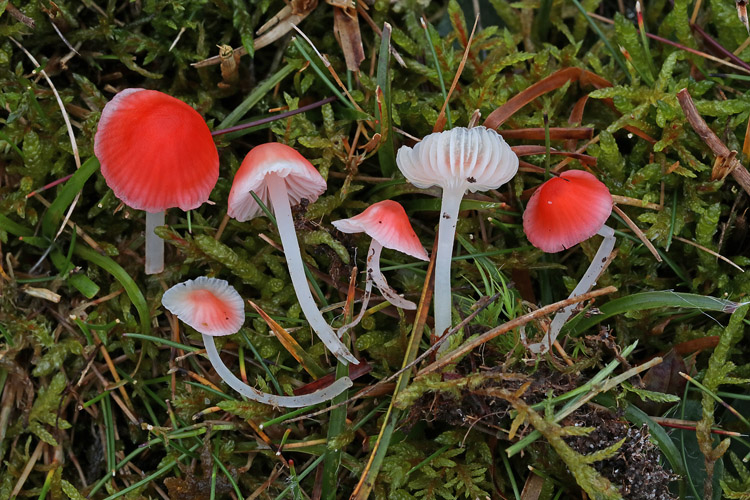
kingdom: Fungi
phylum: Basidiomycota
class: Agaricomycetes
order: Agaricales
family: Mycenaceae
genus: Atheniella
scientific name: Atheniella adonis
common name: rønnerød huesvamp
